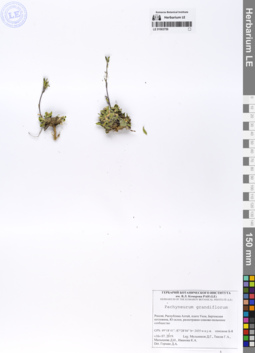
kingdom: Plantae
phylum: Tracheophyta
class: Magnoliopsida
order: Brassicales
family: Brassicaceae
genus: Pachyneurum
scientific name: Pachyneurum grandiflorum
